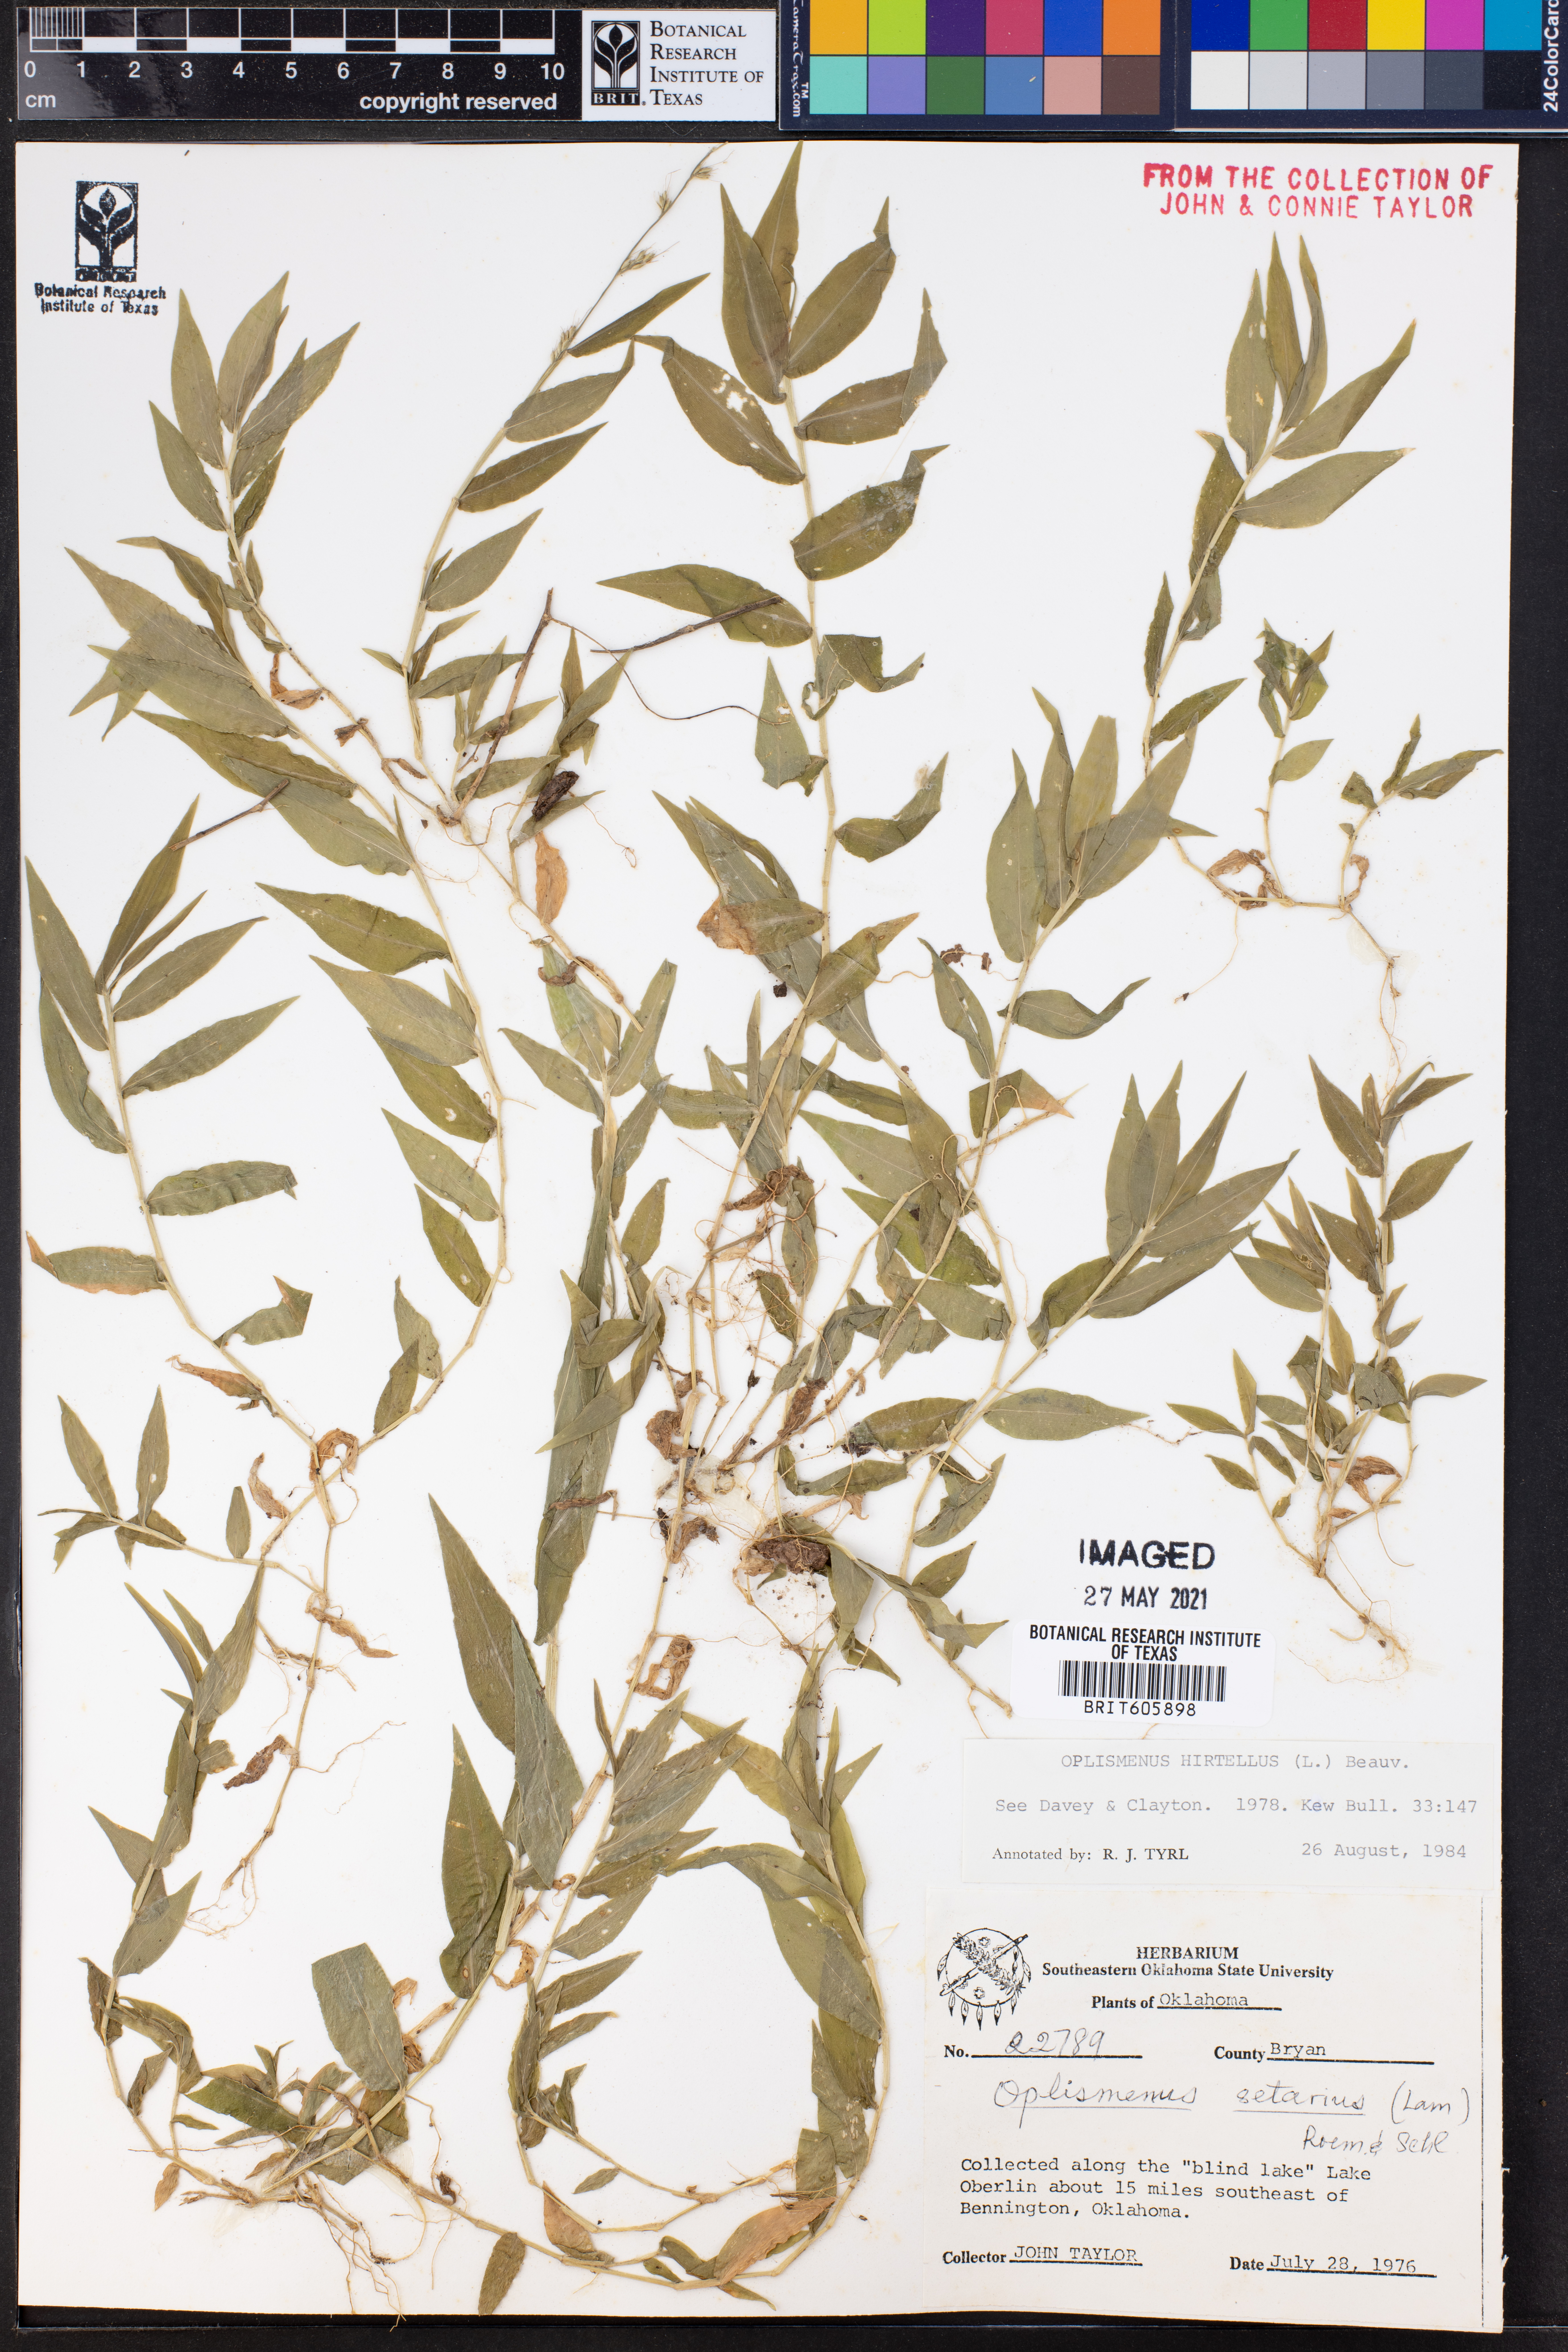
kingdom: Plantae
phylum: Tracheophyta
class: Liliopsida
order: Poales
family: Poaceae
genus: Oplismenus
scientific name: Oplismenus compositus
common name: Running mountain grass
